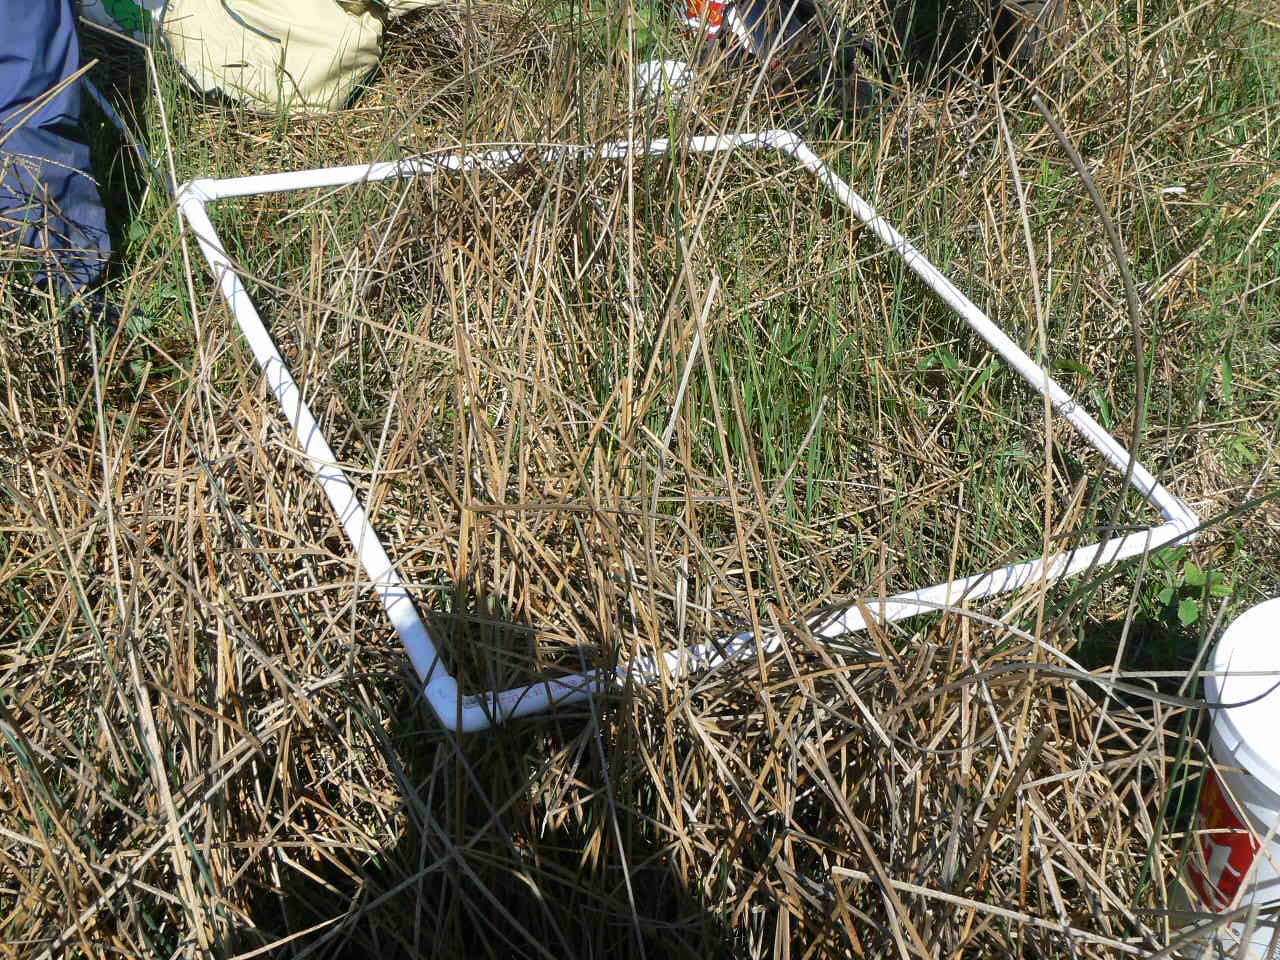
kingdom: Plantae
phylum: Tracheophyta
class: Magnoliopsida
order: Myrtales
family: Lythraceae
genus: Lythrum
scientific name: Lythrum salicaria
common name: Purple loosestrife
